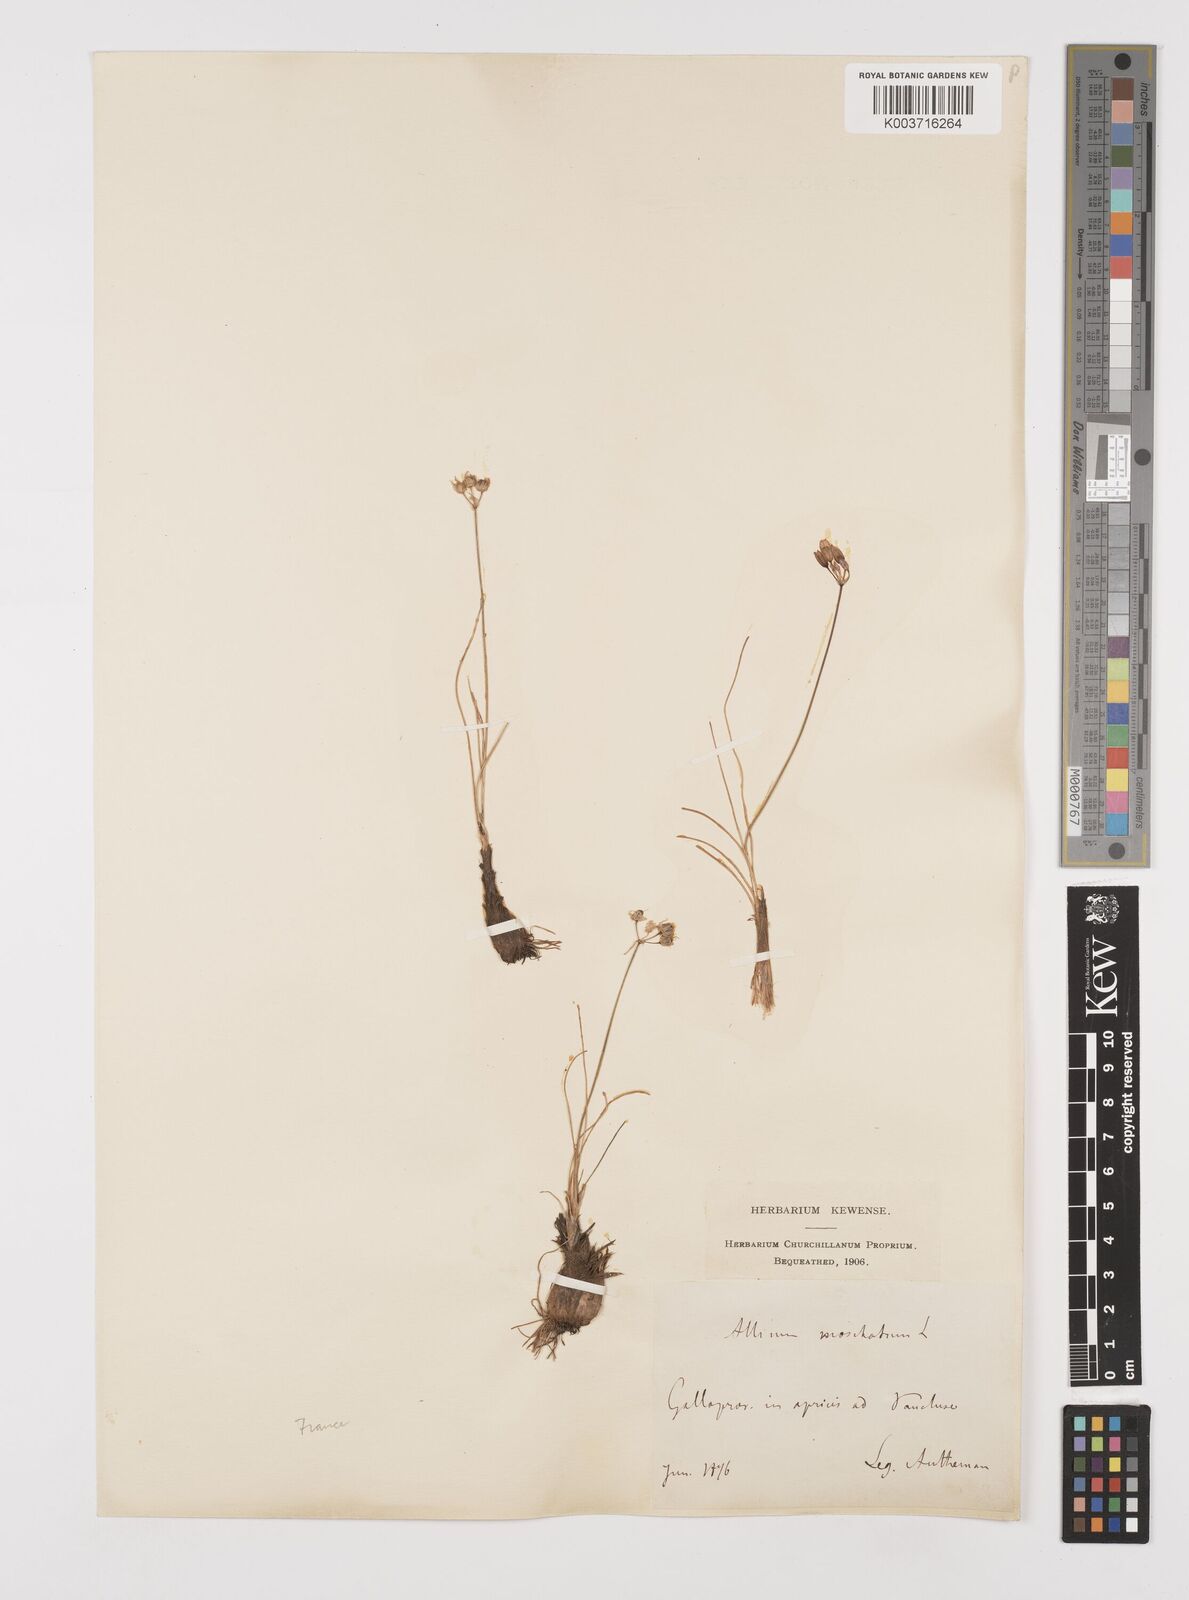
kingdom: Plantae
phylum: Tracheophyta
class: Liliopsida
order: Asparagales
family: Amaryllidaceae
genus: Allium
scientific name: Allium moschatum
